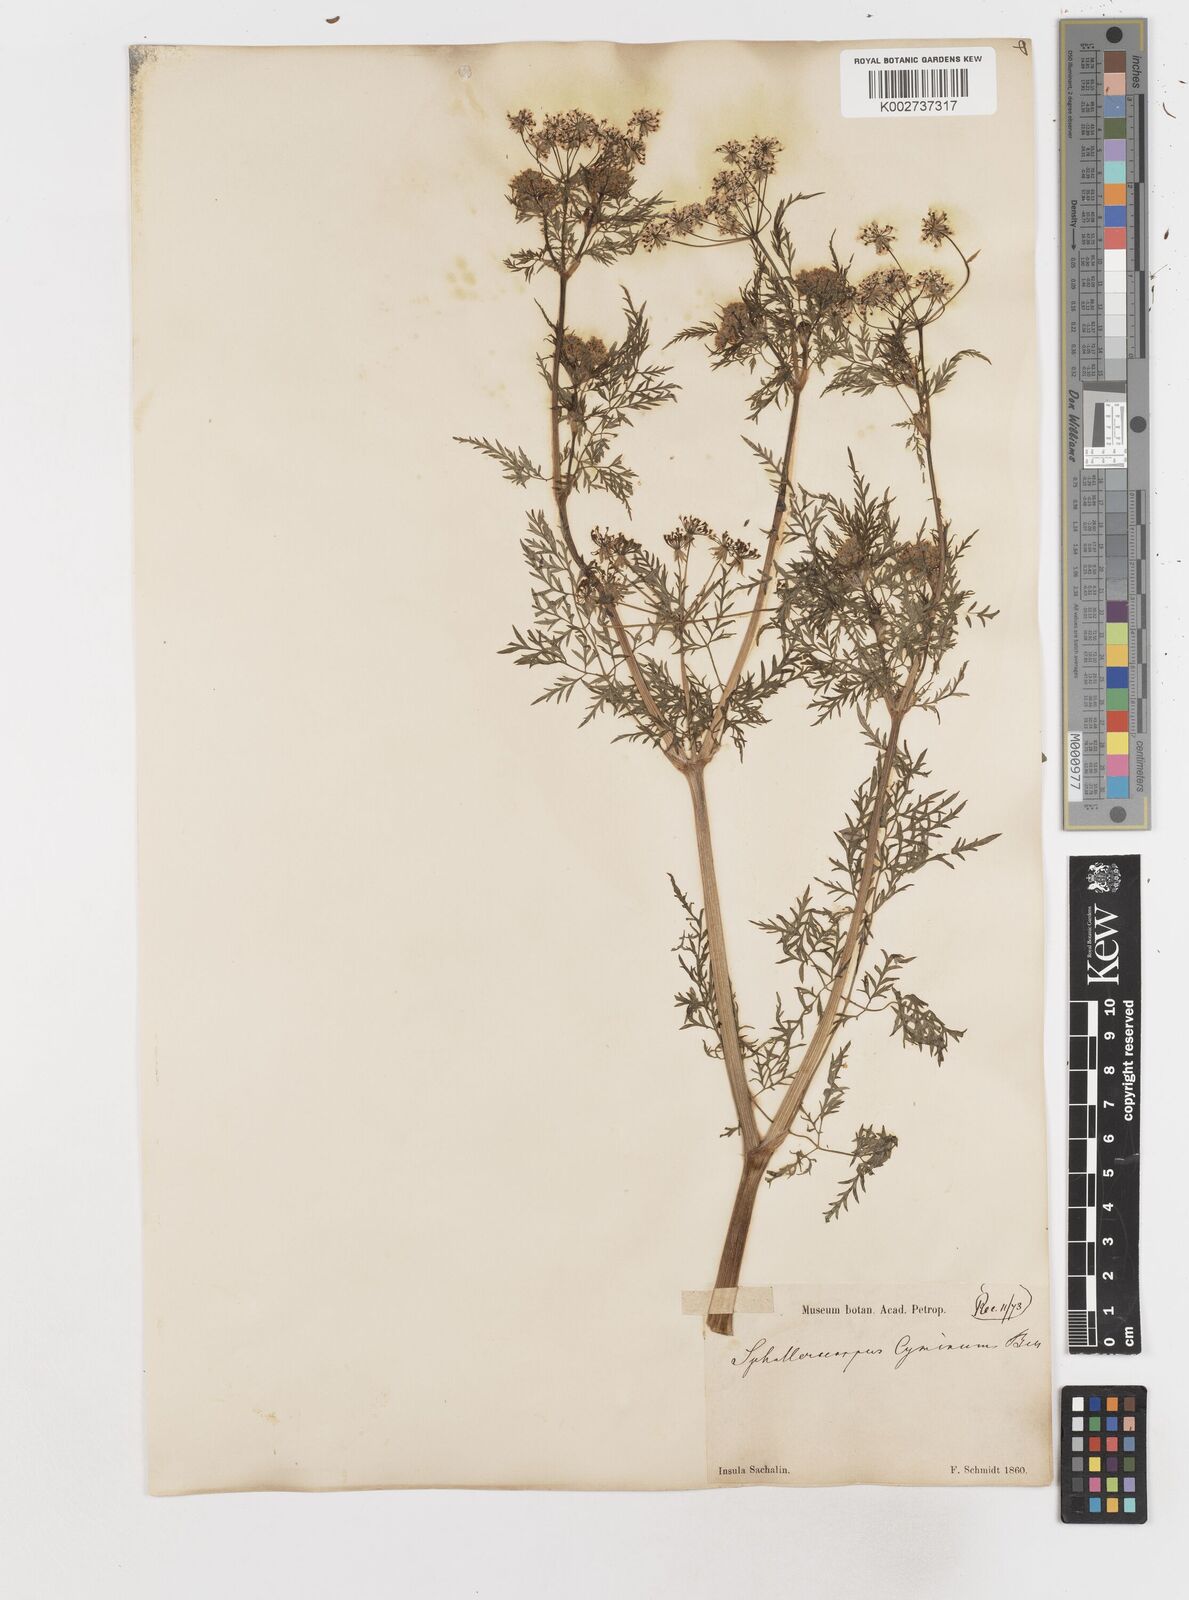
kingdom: Plantae
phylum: Tracheophyta
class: Magnoliopsida
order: Apiales
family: Apiaceae
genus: Sphallerocarpus
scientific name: Sphallerocarpus gracilis
